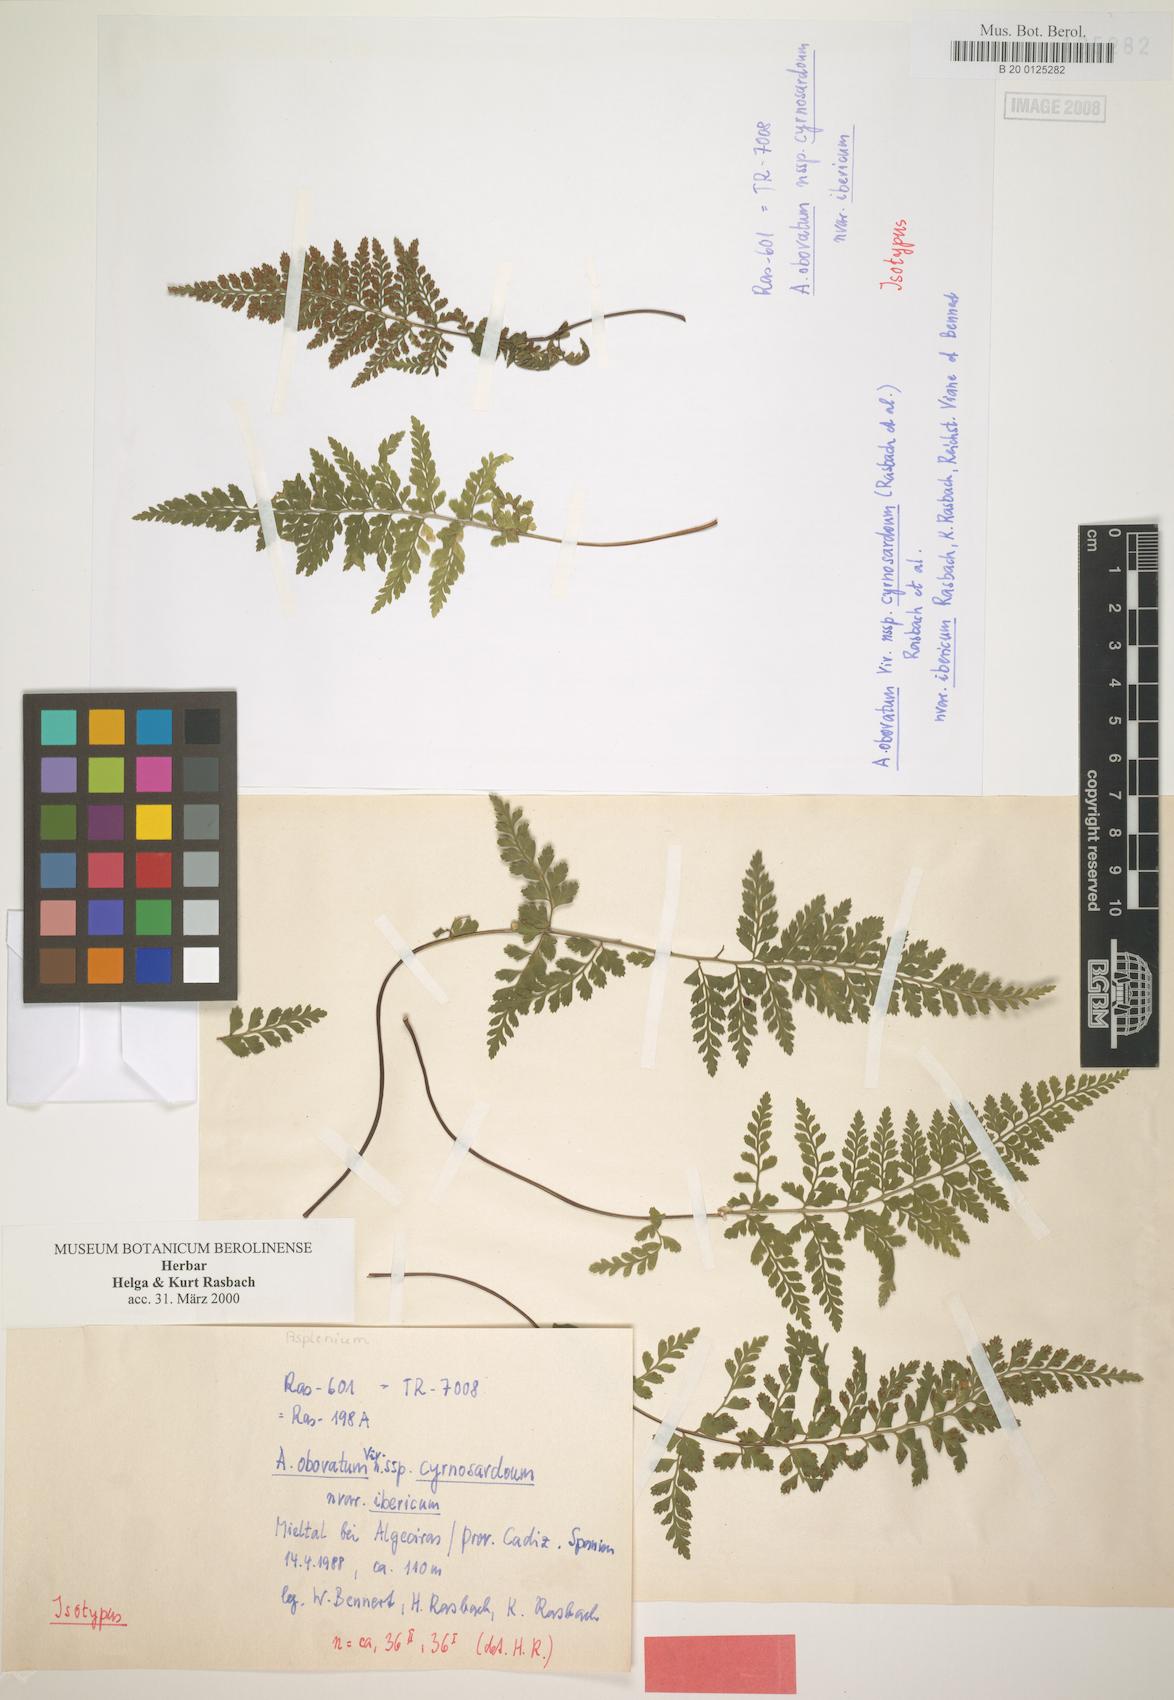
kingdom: Plantae
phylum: Tracheophyta
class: Polypodiopsida
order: Polypodiales
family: Aspleniaceae
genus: Asplenium
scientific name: Asplenium obovatum
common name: Lanceolate spleenwort
